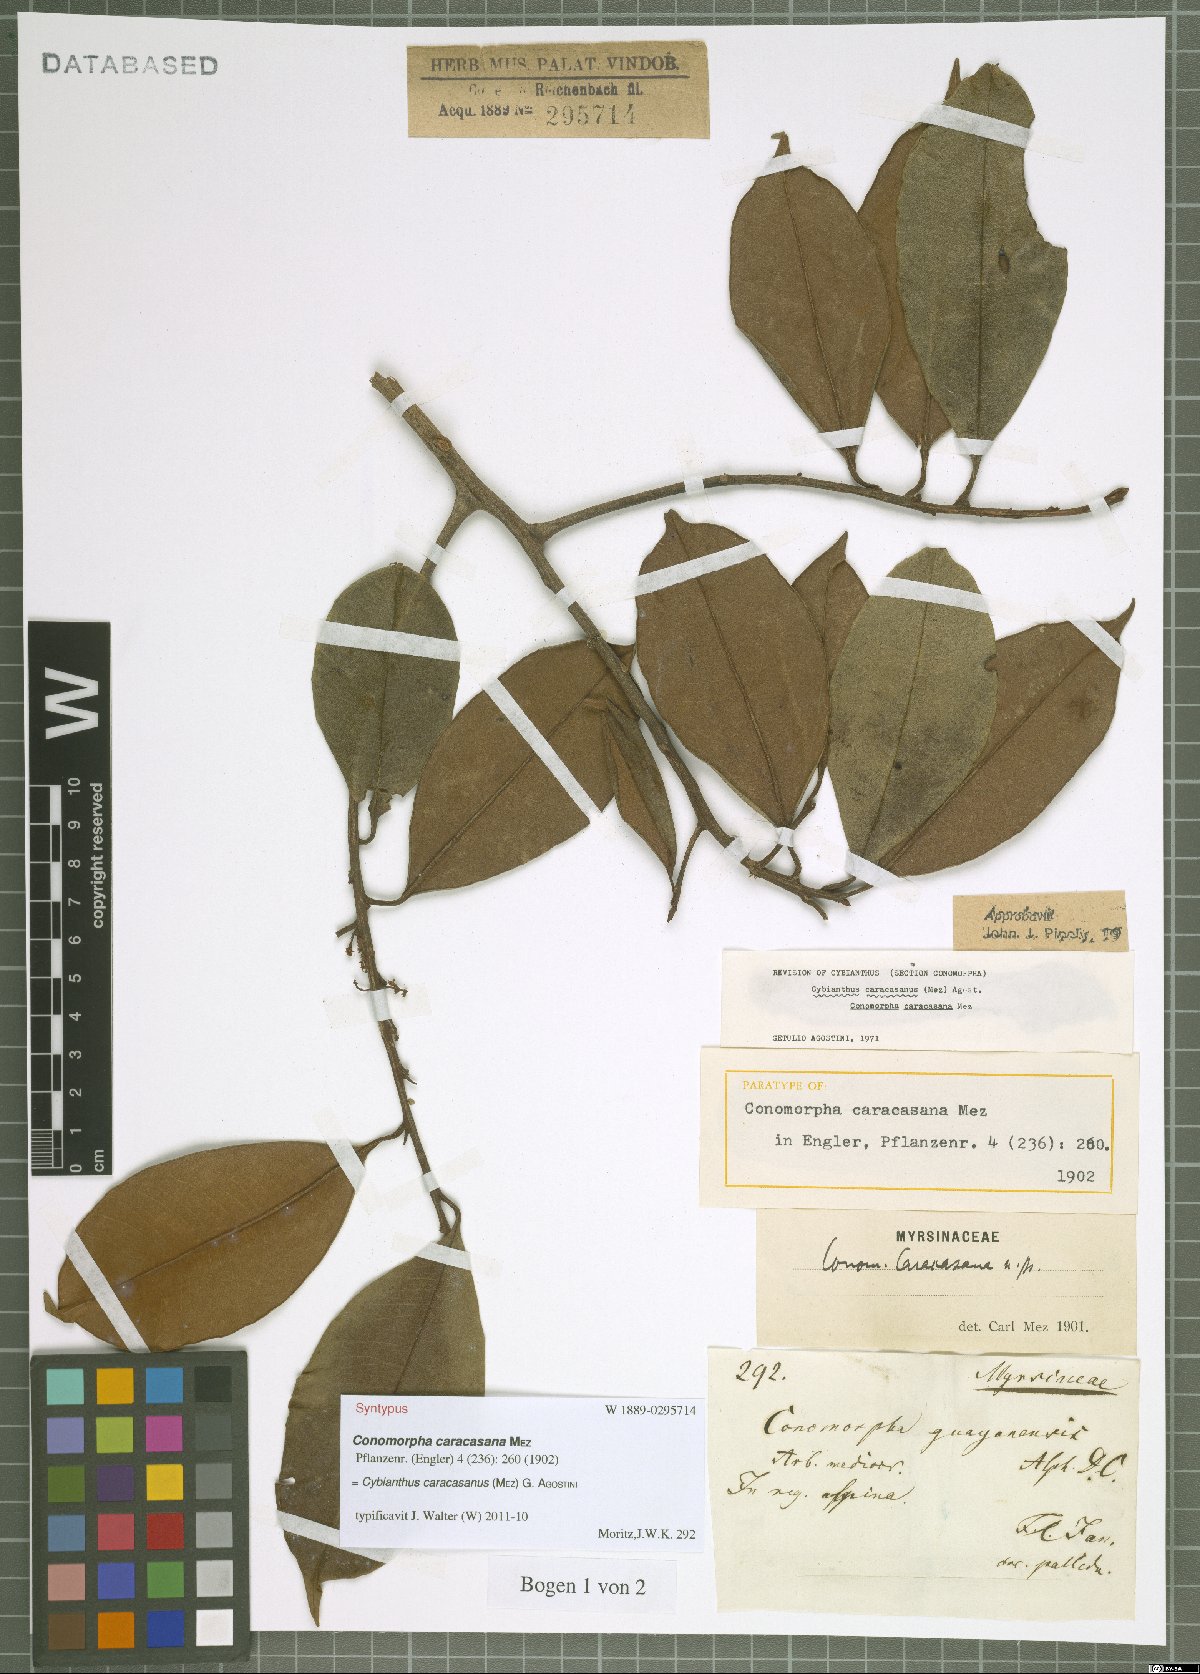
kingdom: Plantae
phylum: Tracheophyta
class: Magnoliopsida
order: Ericales
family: Primulaceae
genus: Cybianthus
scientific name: Cybianthus caracasanus
